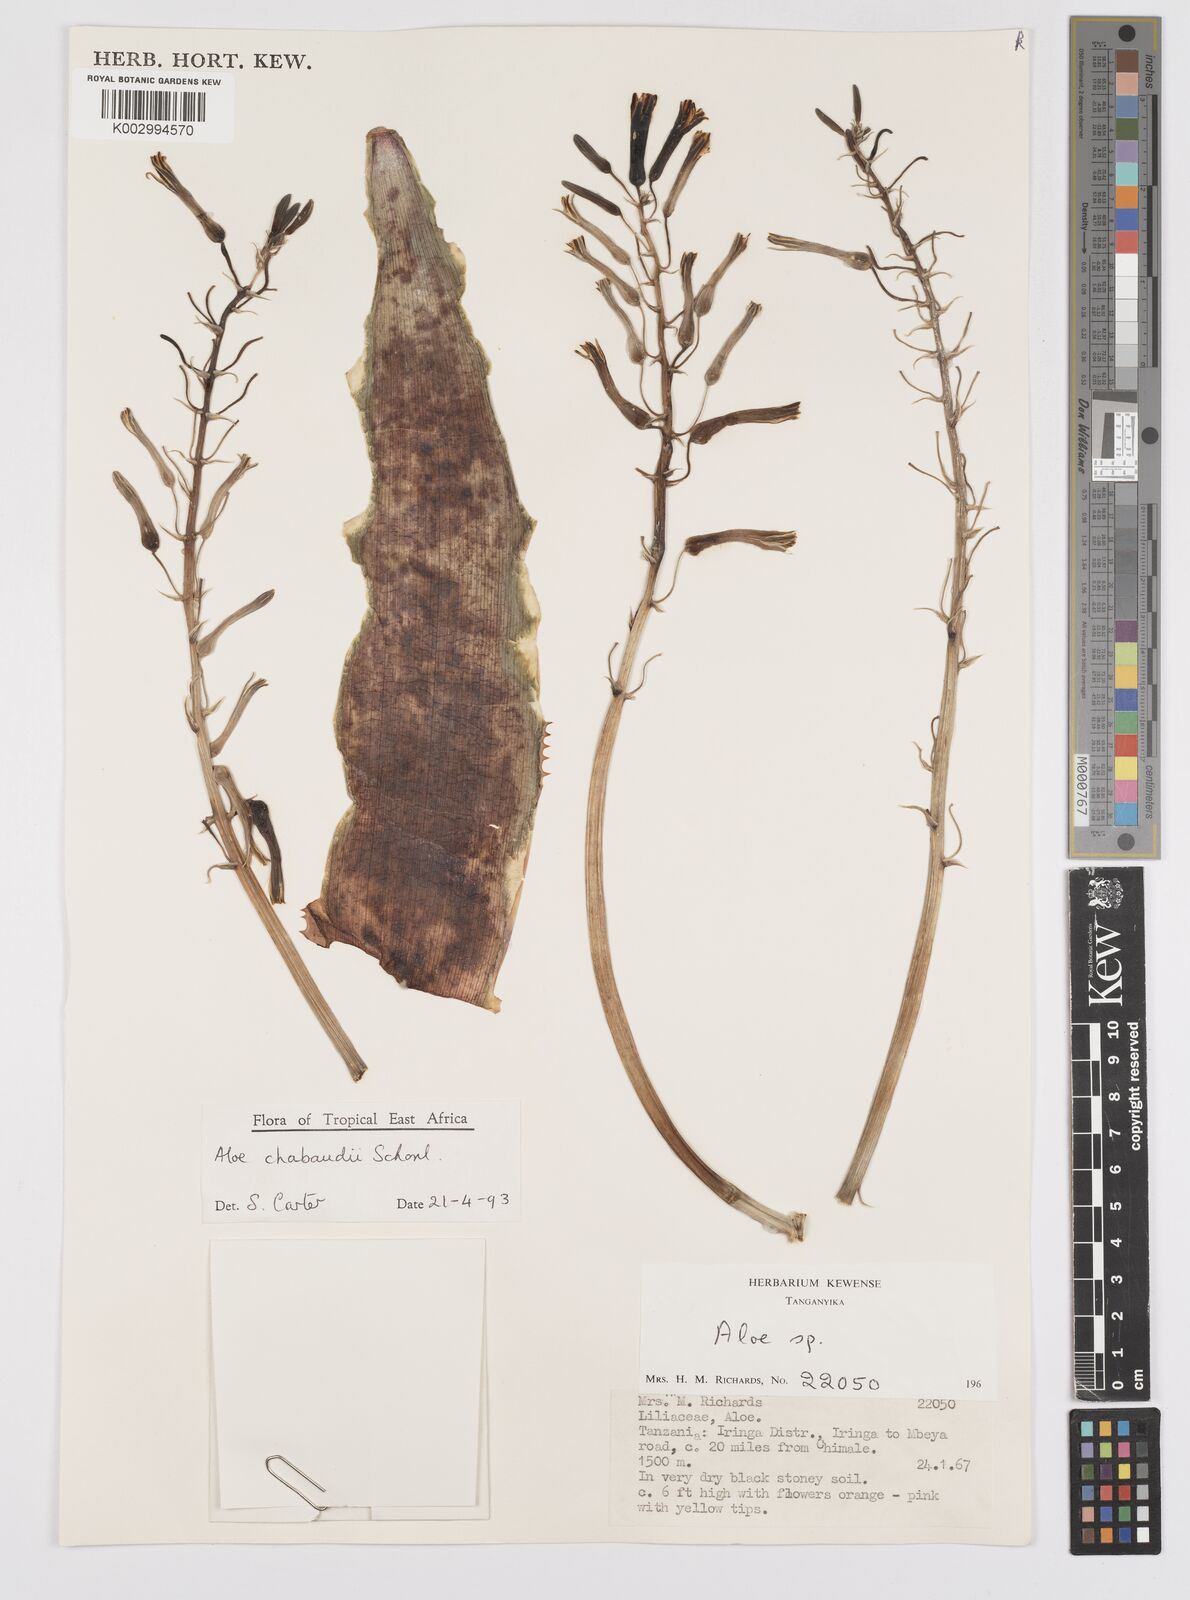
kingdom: Plantae
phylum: Tracheophyta
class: Liliopsida
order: Asparagales
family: Asphodelaceae
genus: Aloe
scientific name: Aloe chabaudii
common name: Chabaud's aloe
